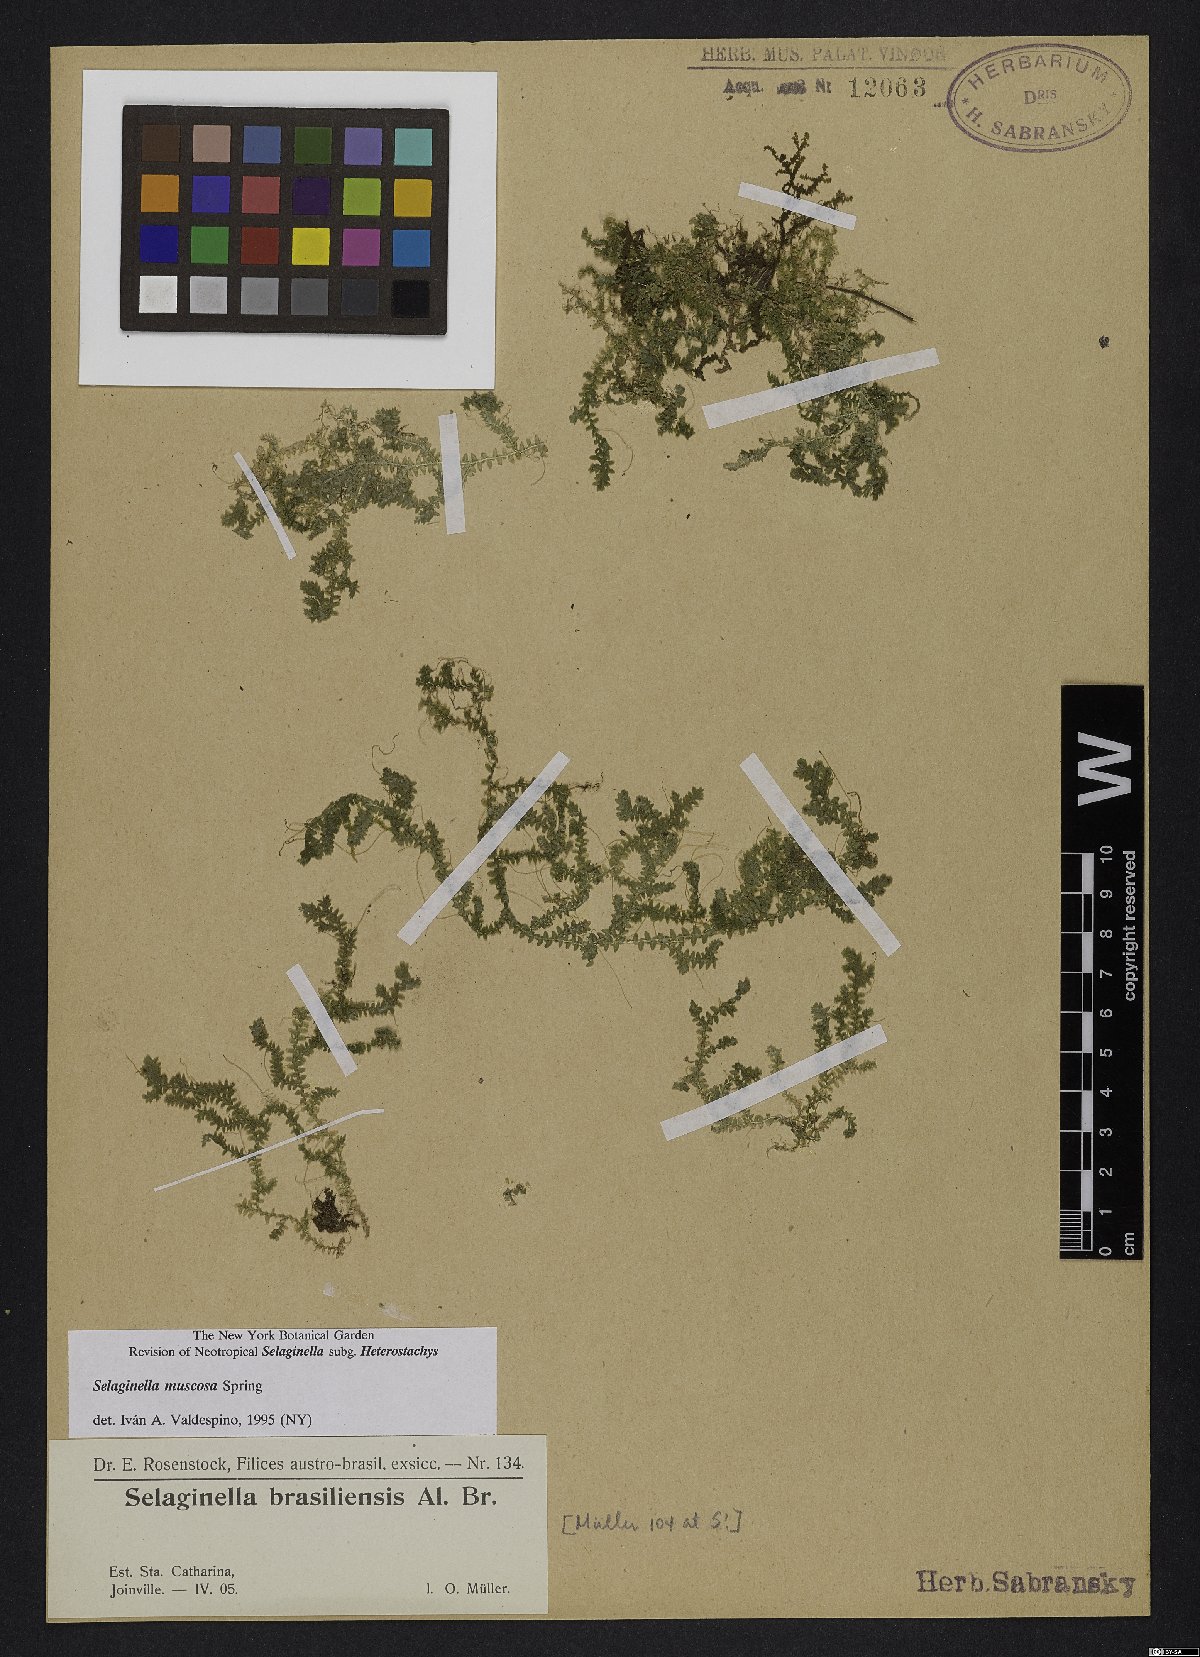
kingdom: Plantae
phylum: Tracheophyta
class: Lycopodiopsida
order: Selaginellales
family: Selaginellaceae
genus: Selaginella
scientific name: Selaginella muscosa
